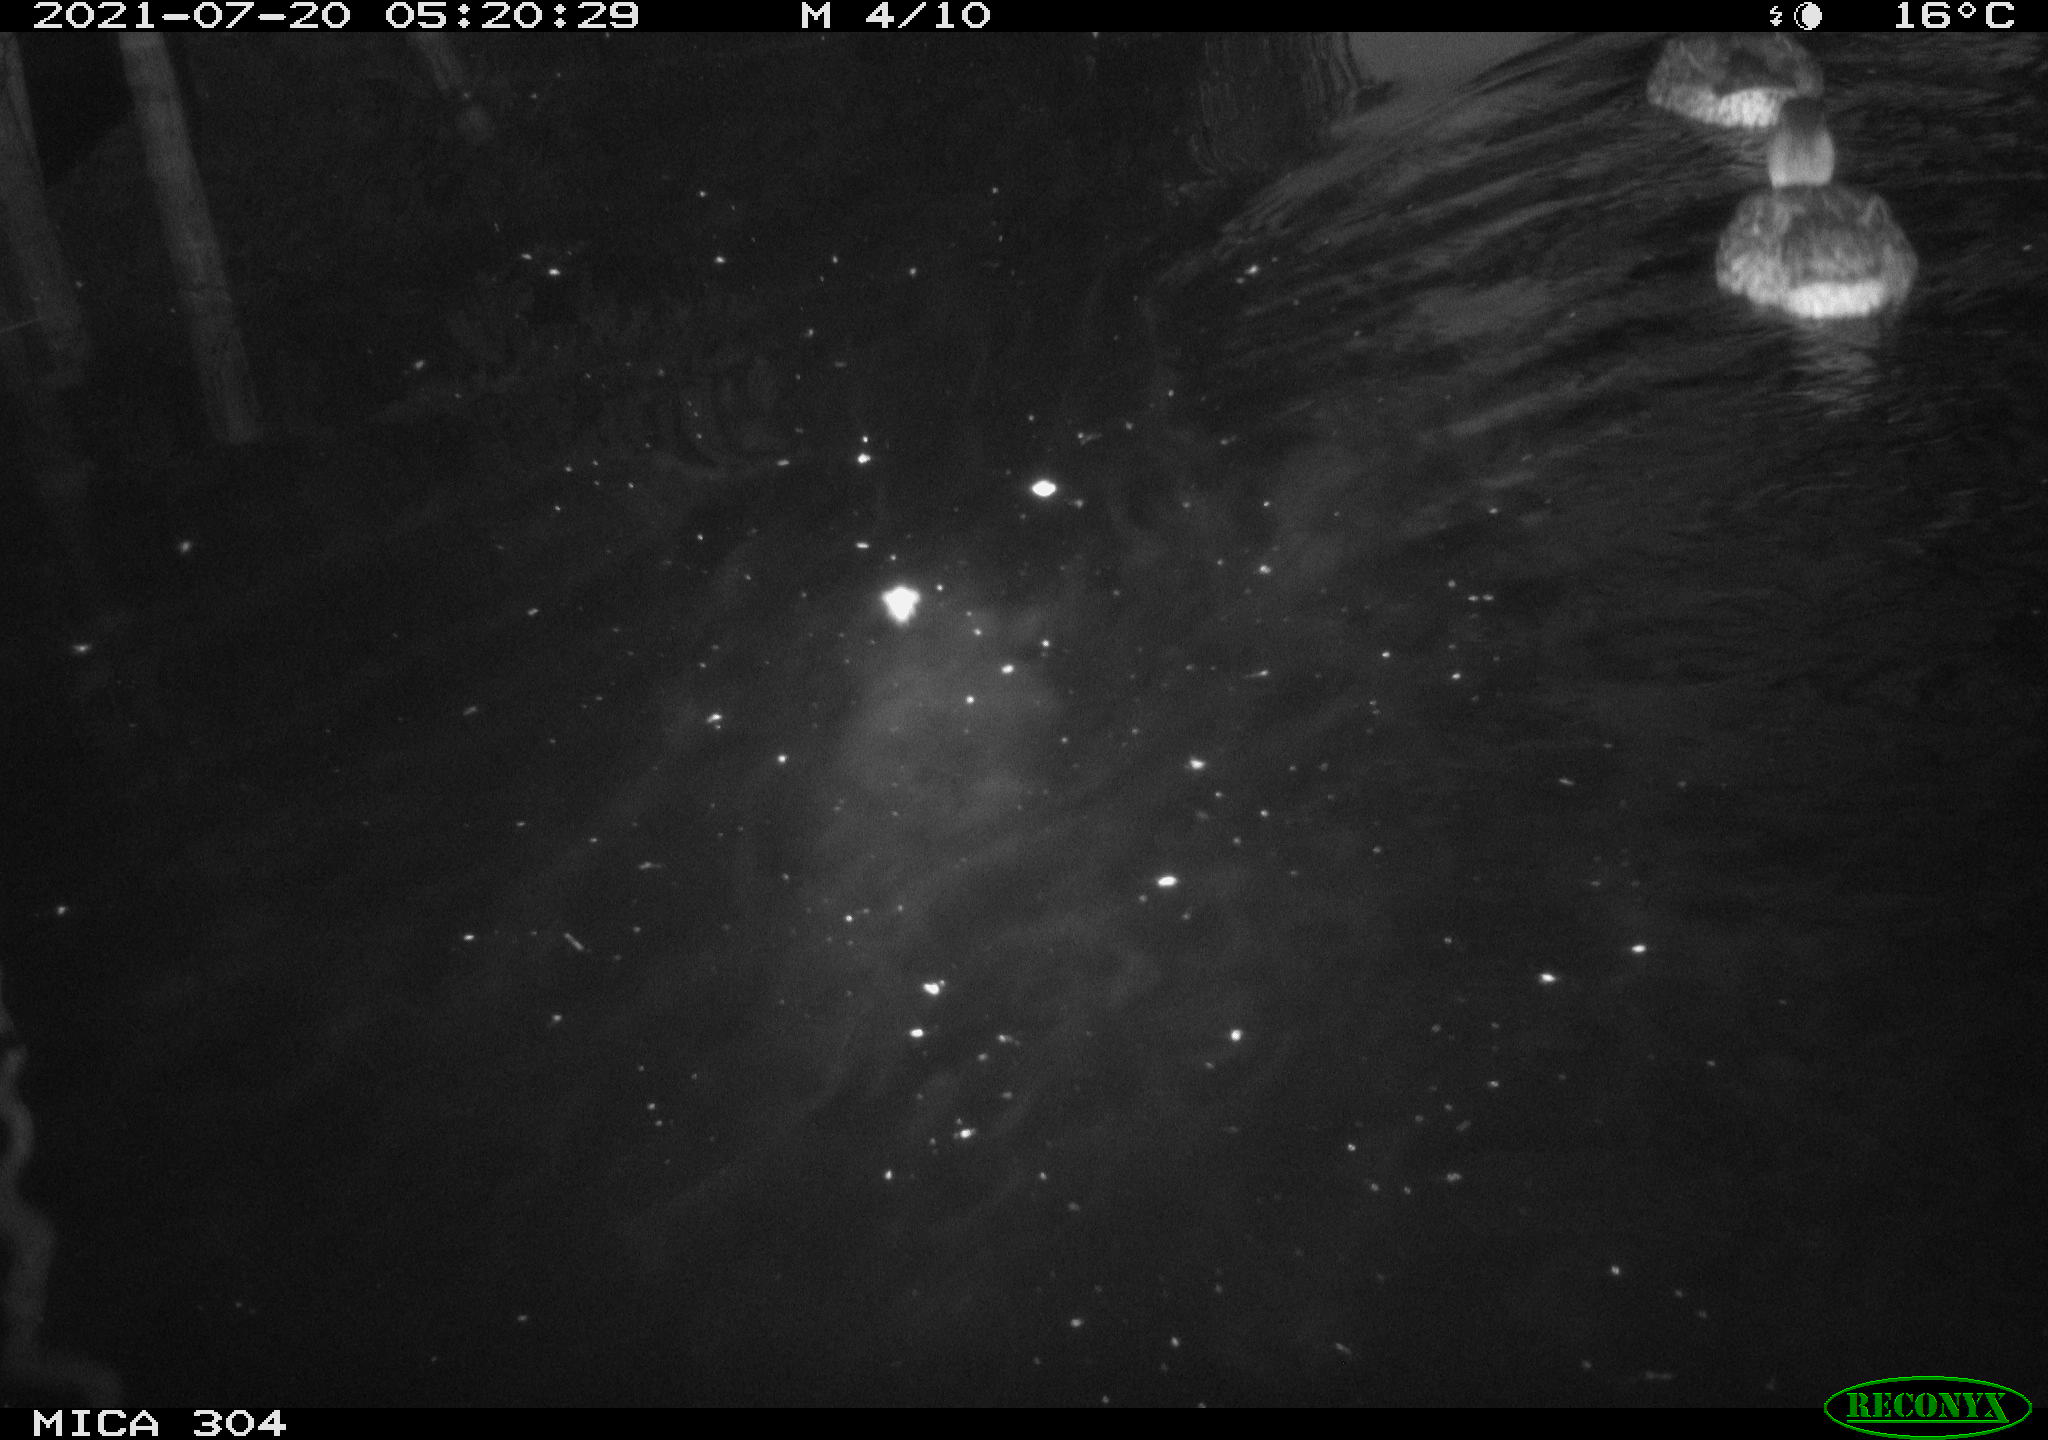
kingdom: Animalia
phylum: Chordata
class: Aves
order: Anseriformes
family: Anatidae
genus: Mareca
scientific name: Mareca strepera
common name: Gadwall
